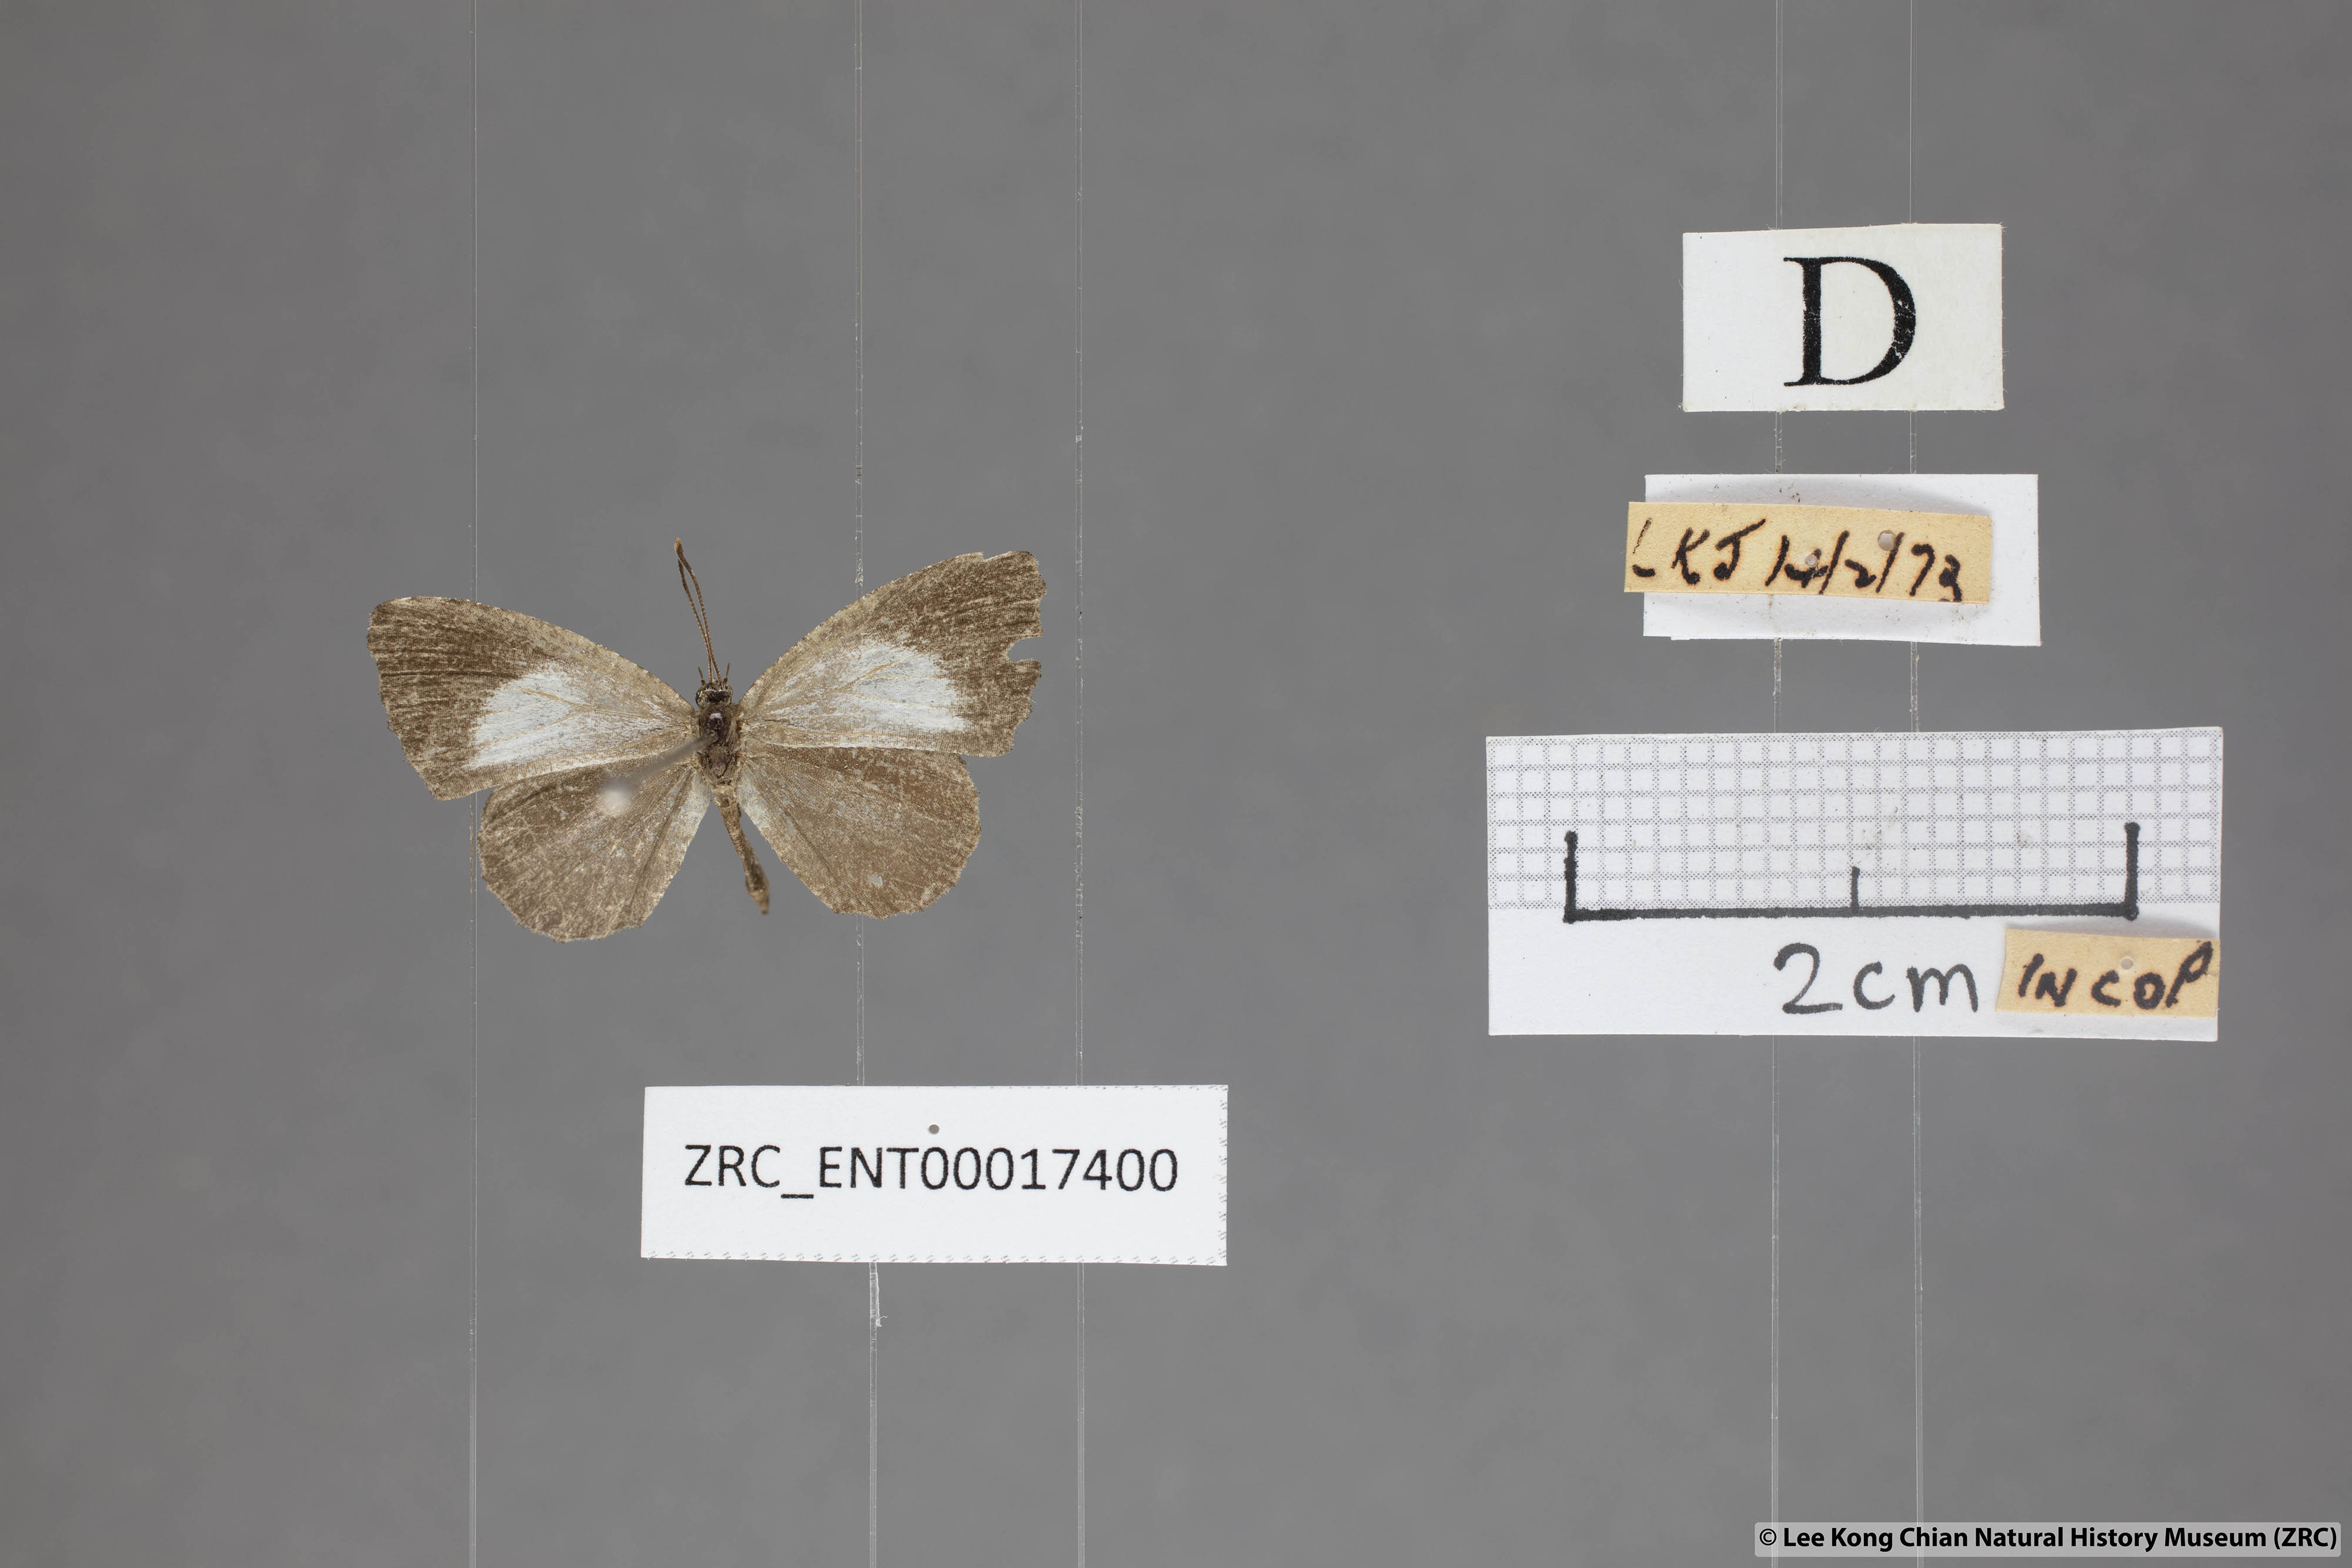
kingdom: Animalia
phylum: Arthropoda
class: Insecta
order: Lepidoptera
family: Lycaenidae
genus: Logania
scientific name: Logania marmorata
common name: Pale mottle
